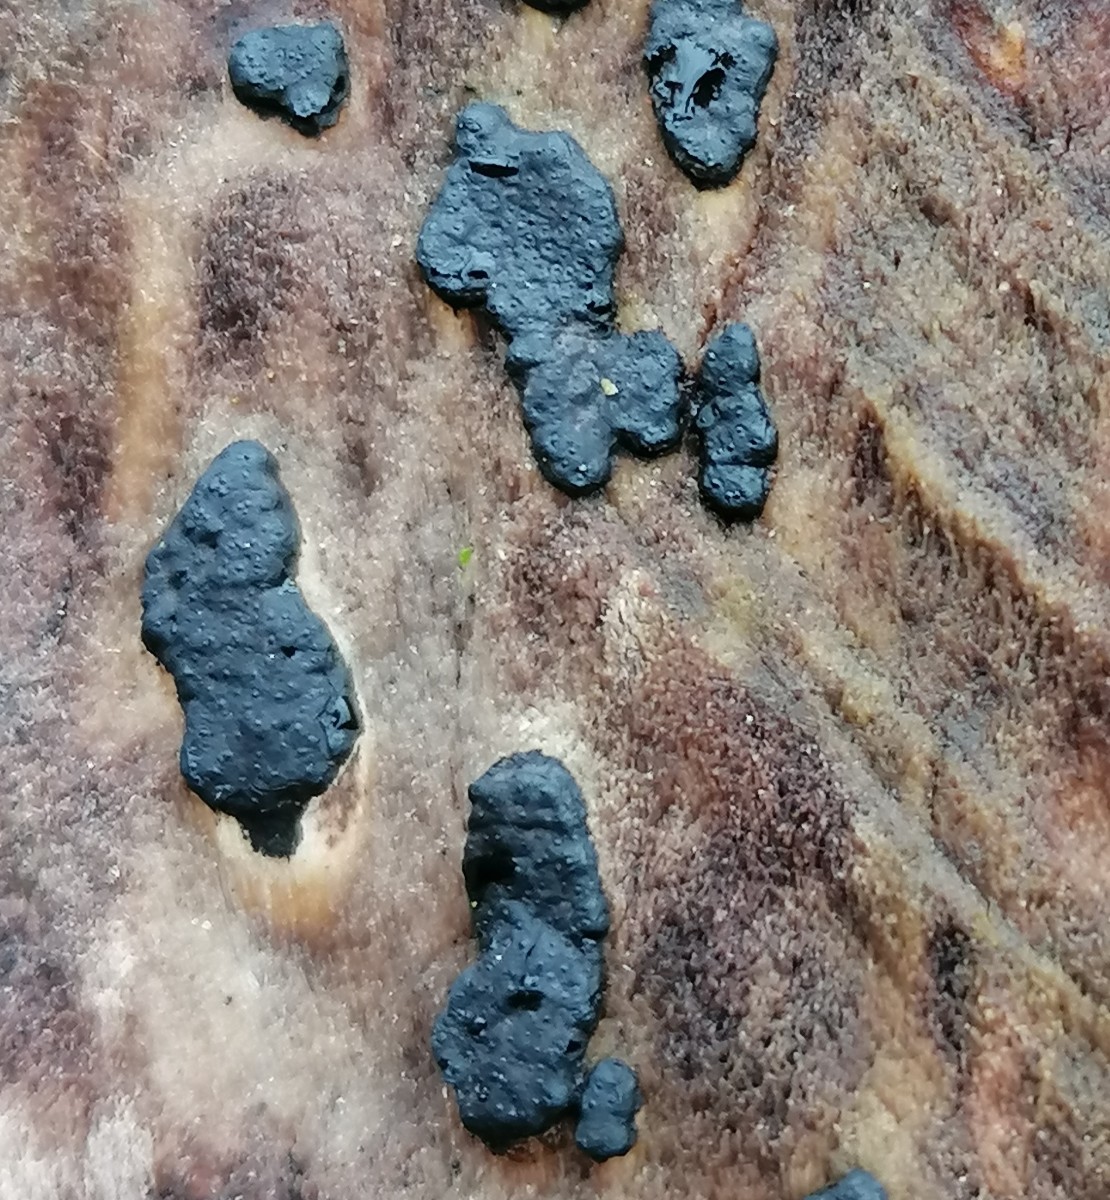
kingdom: Fungi
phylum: Ascomycota
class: Sordariomycetes
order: Xylariales
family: Xylariaceae
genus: Nemania
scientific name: Nemania
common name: kuldyne
